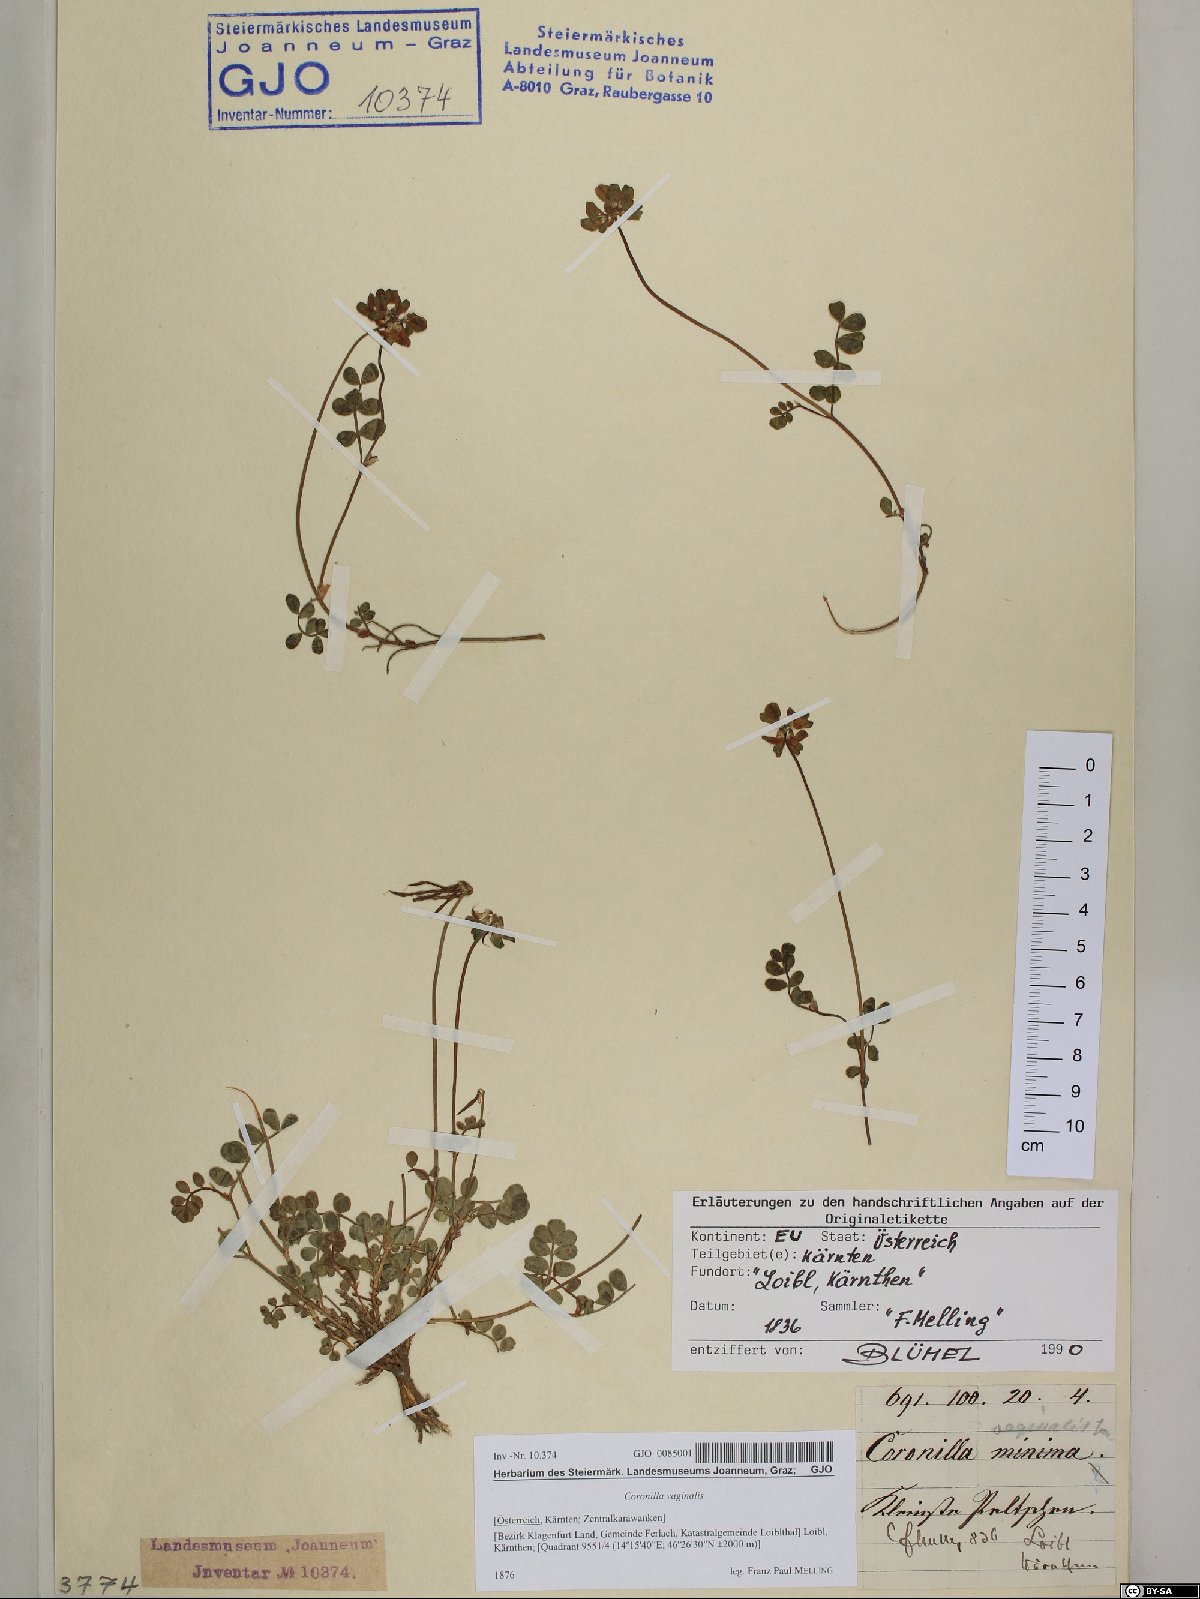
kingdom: Plantae
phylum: Tracheophyta
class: Magnoliopsida
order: Fabales
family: Fabaceae
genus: Coronilla
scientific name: Coronilla vaginalis
